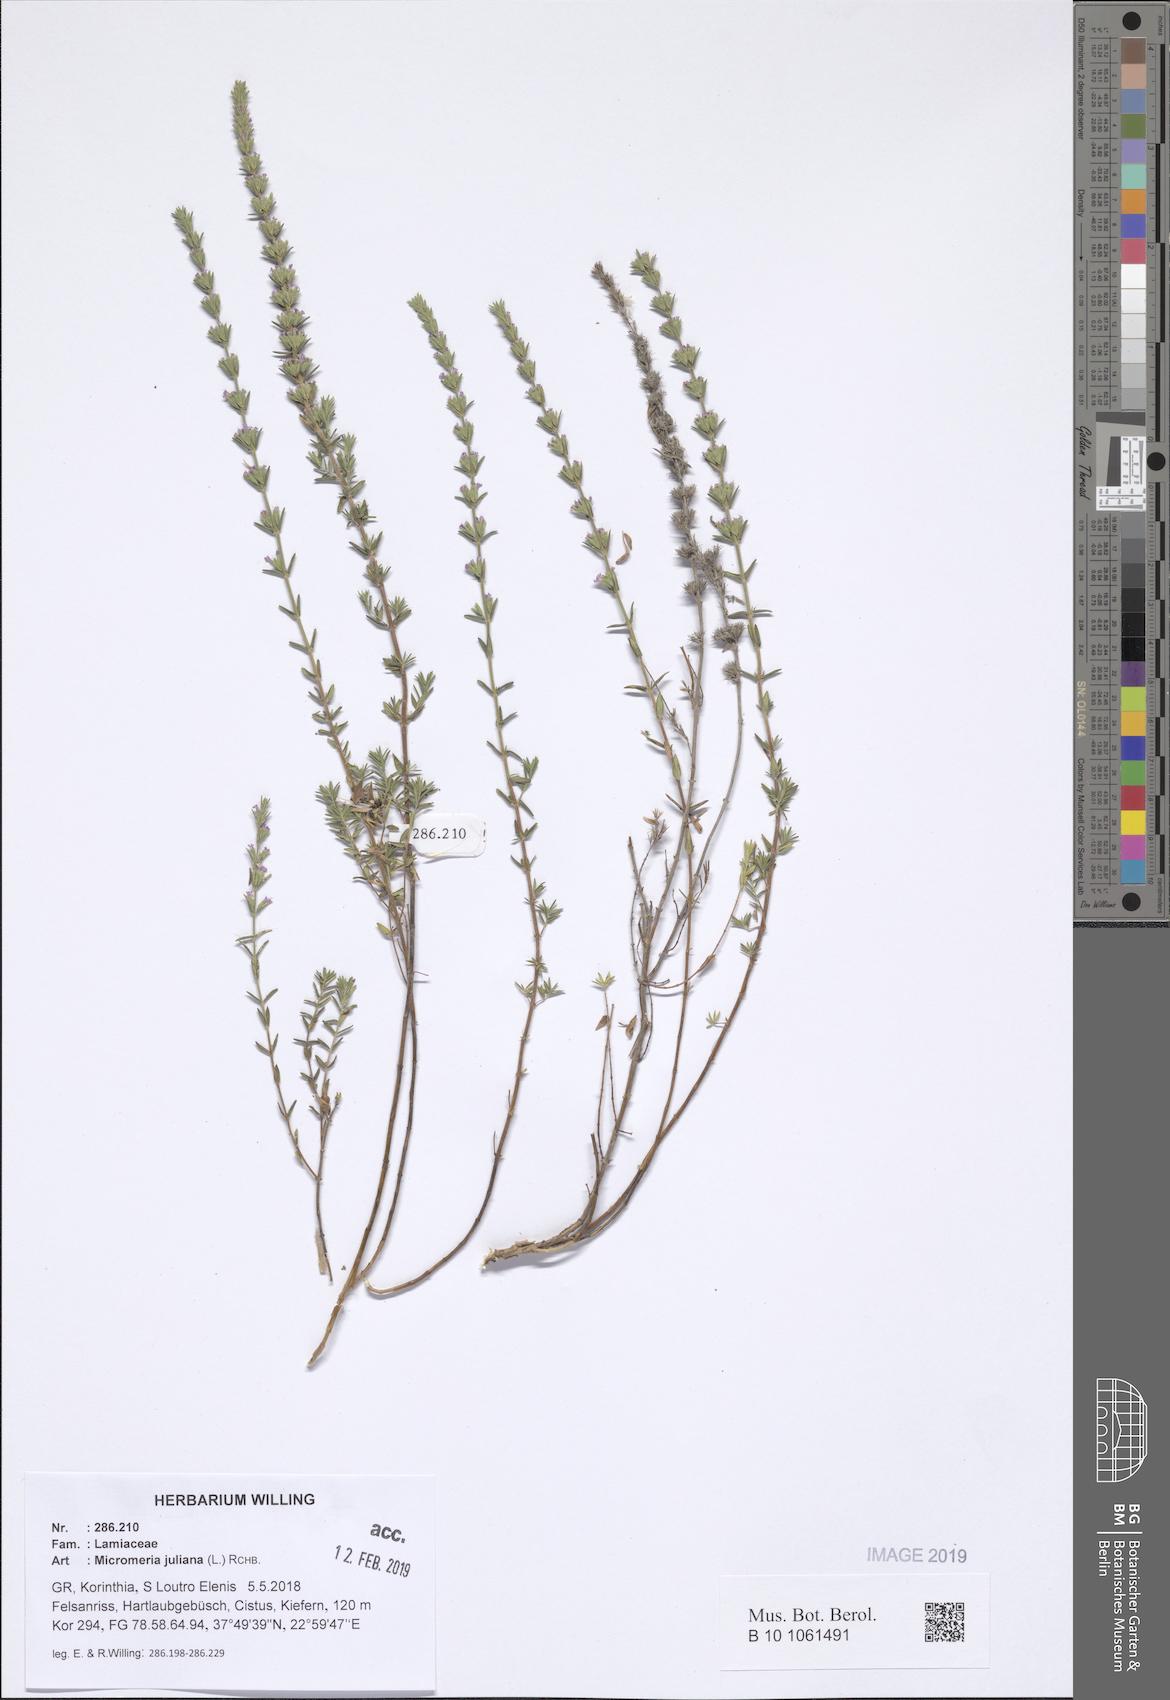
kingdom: Plantae
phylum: Tracheophyta
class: Magnoliopsida
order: Lamiales
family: Lamiaceae
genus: Micromeria
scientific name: Micromeria juliana
